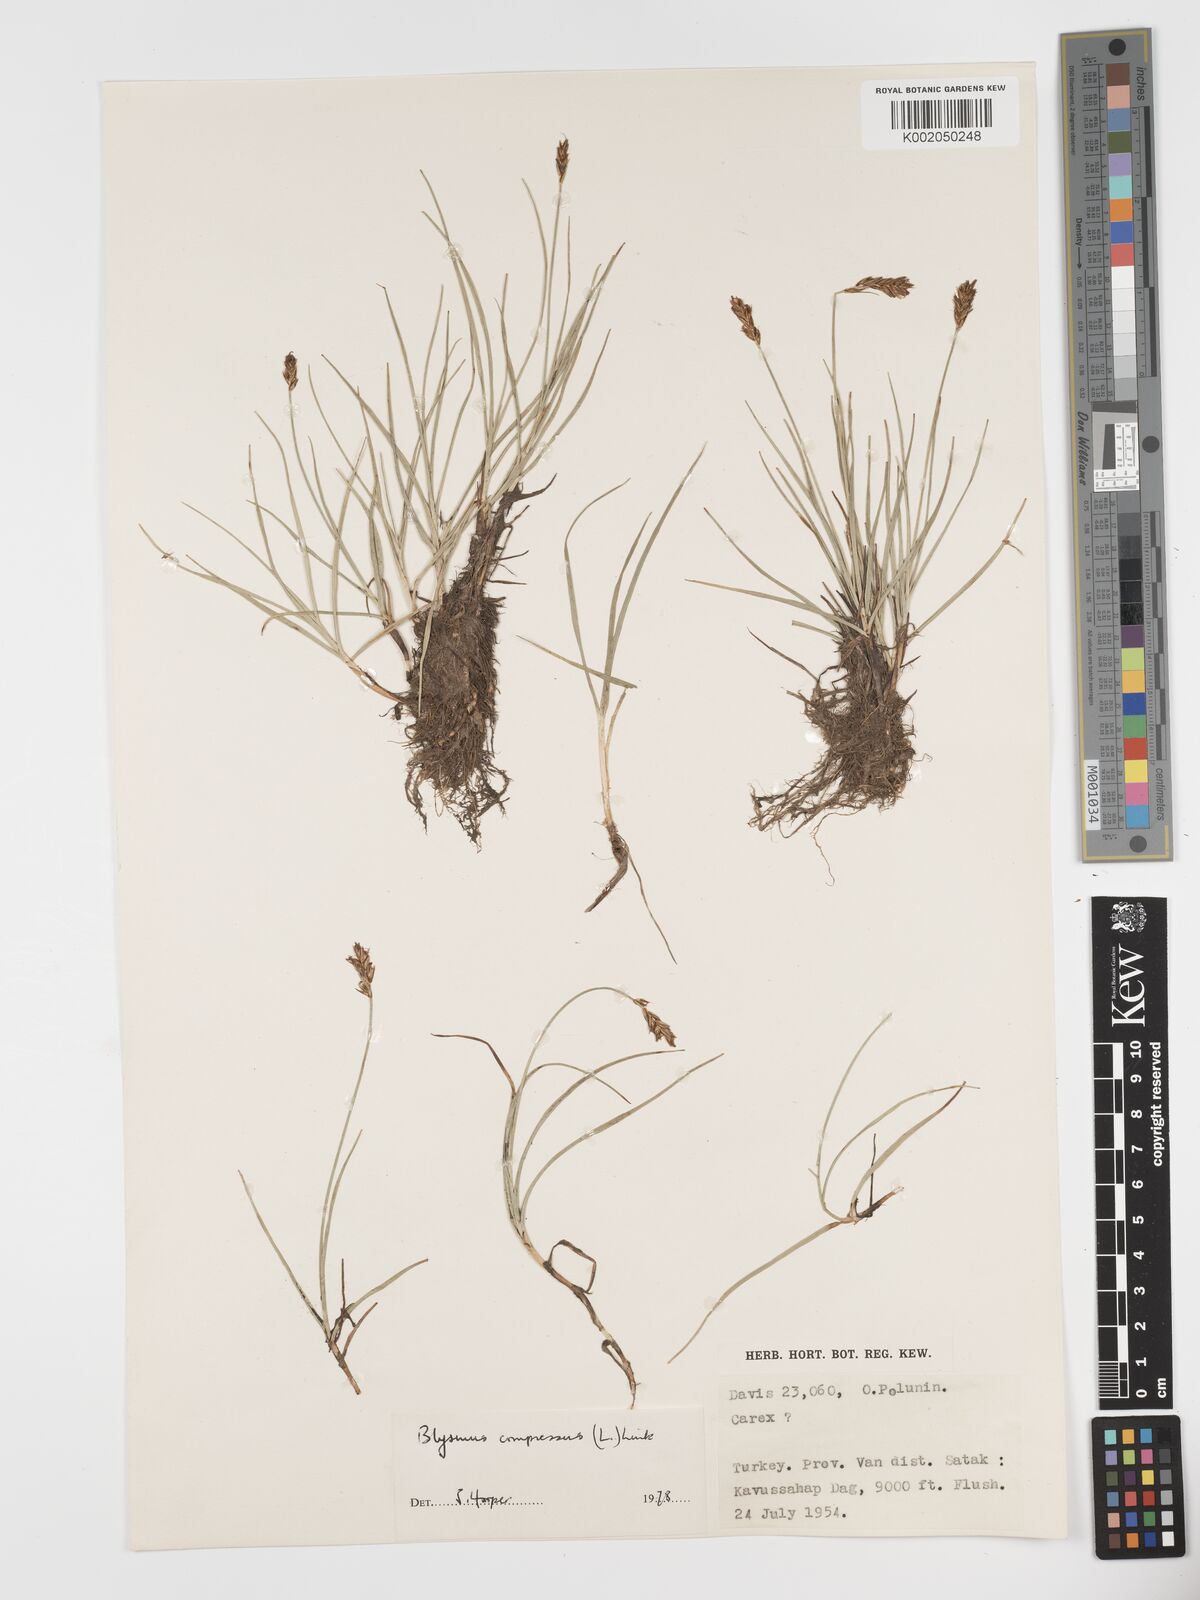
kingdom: Plantae
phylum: Tracheophyta
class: Liliopsida
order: Poales
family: Cyperaceae
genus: Blysmus
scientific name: Blysmus compressus
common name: Flat-sedge
